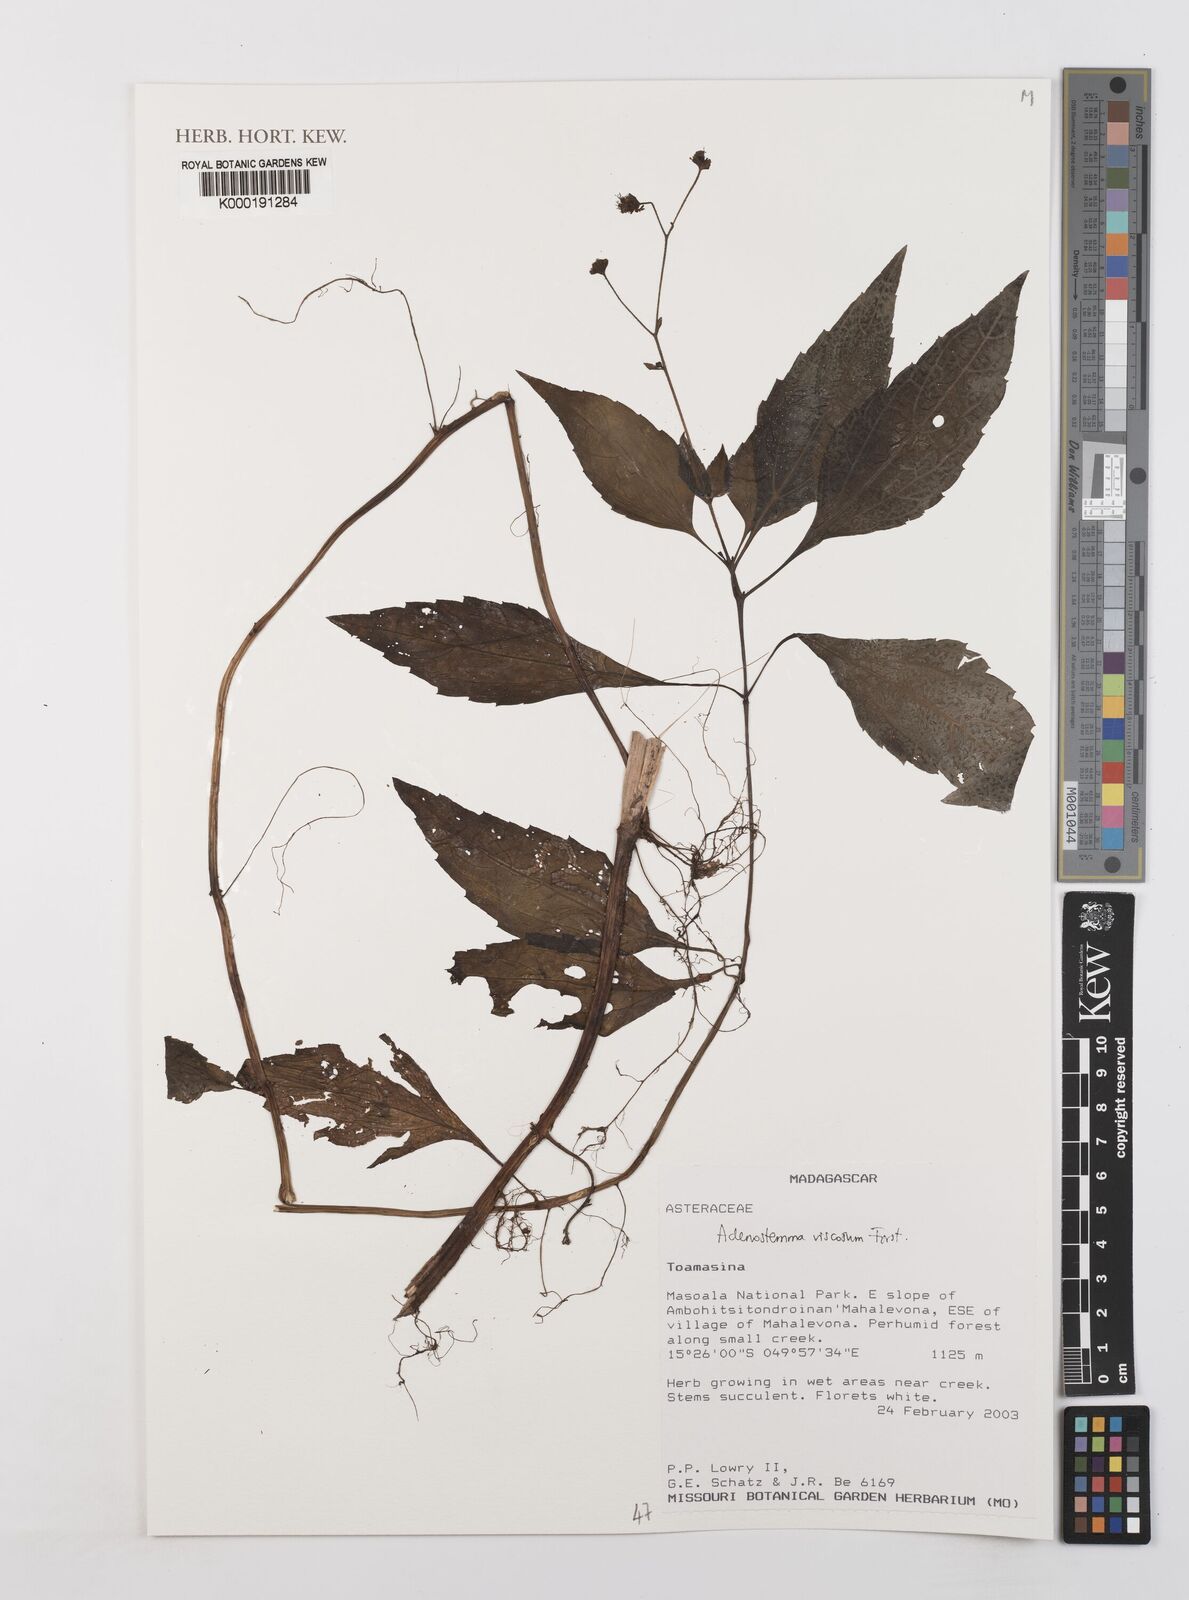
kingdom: Plantae
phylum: Tracheophyta
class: Magnoliopsida
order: Asterales
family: Asteraceae
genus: Adenostemma
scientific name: Adenostemma viscosum
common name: Dungweed
